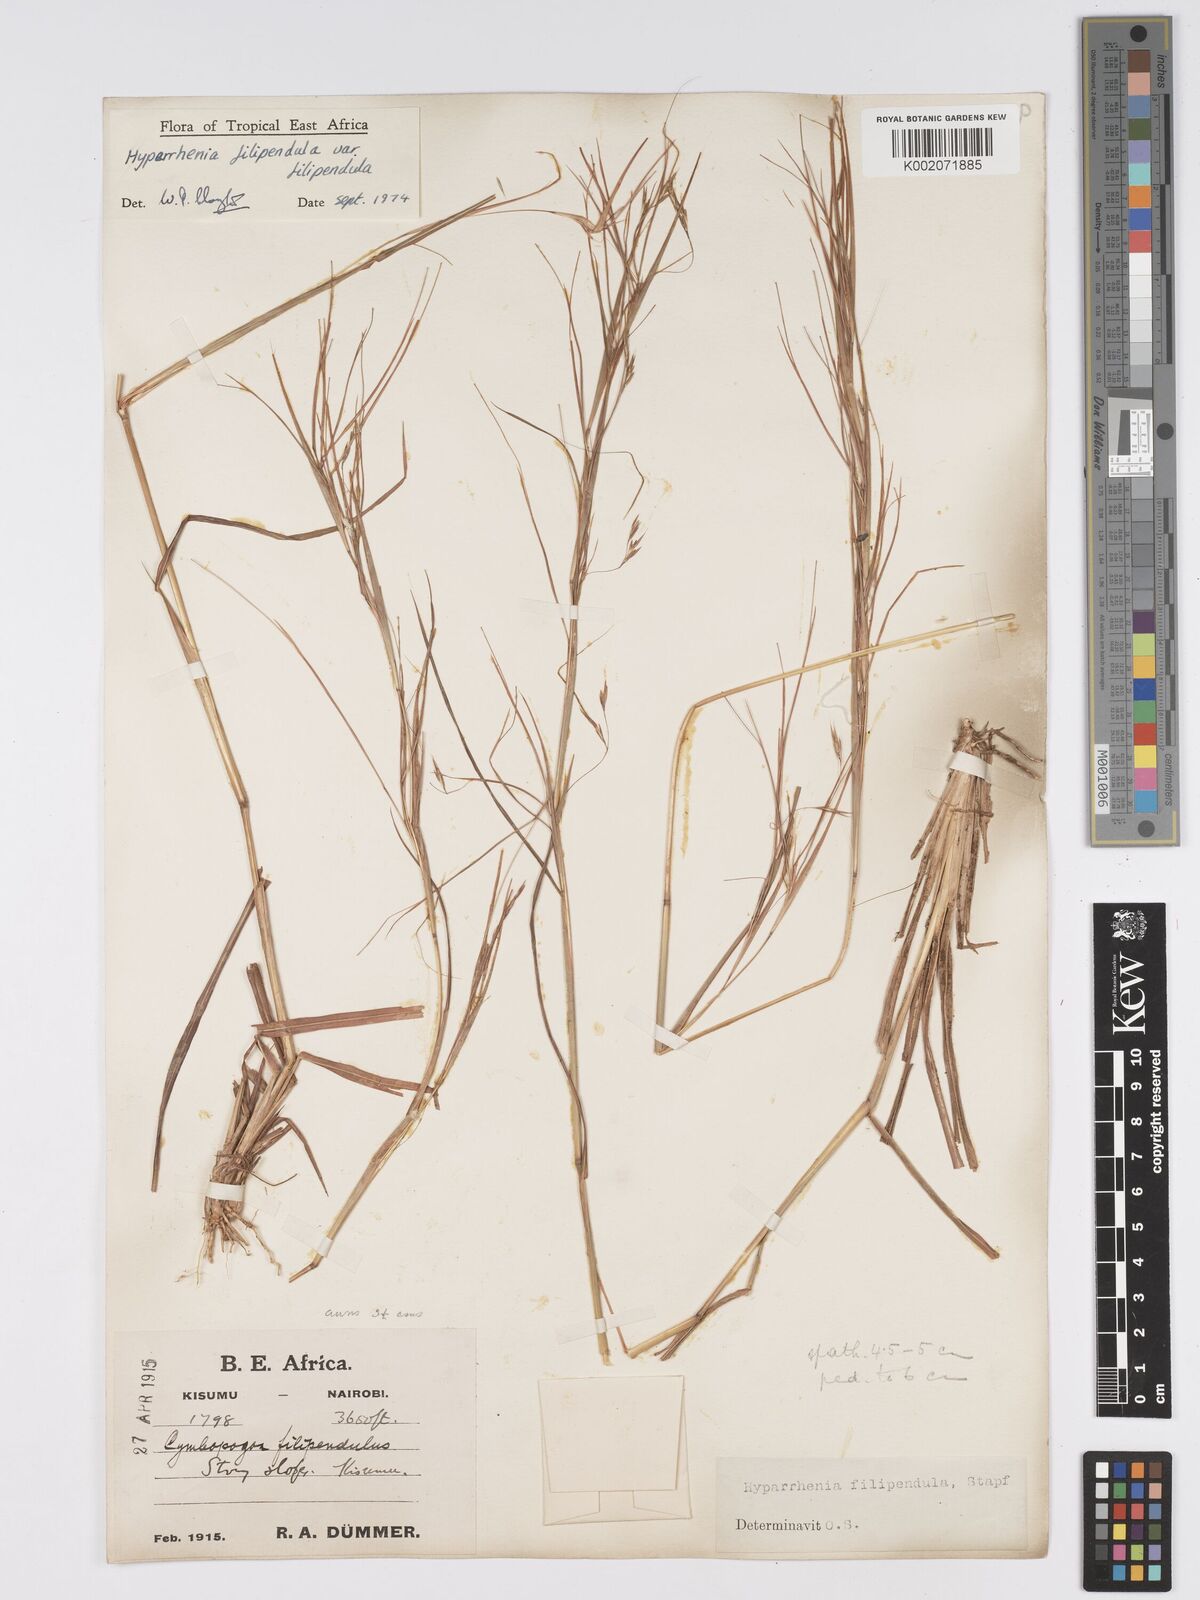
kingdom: Plantae
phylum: Tracheophyta
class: Liliopsida
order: Poales
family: Poaceae
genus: Hyparrhenia
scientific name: Hyparrhenia filipendula
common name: Tambookie grass
